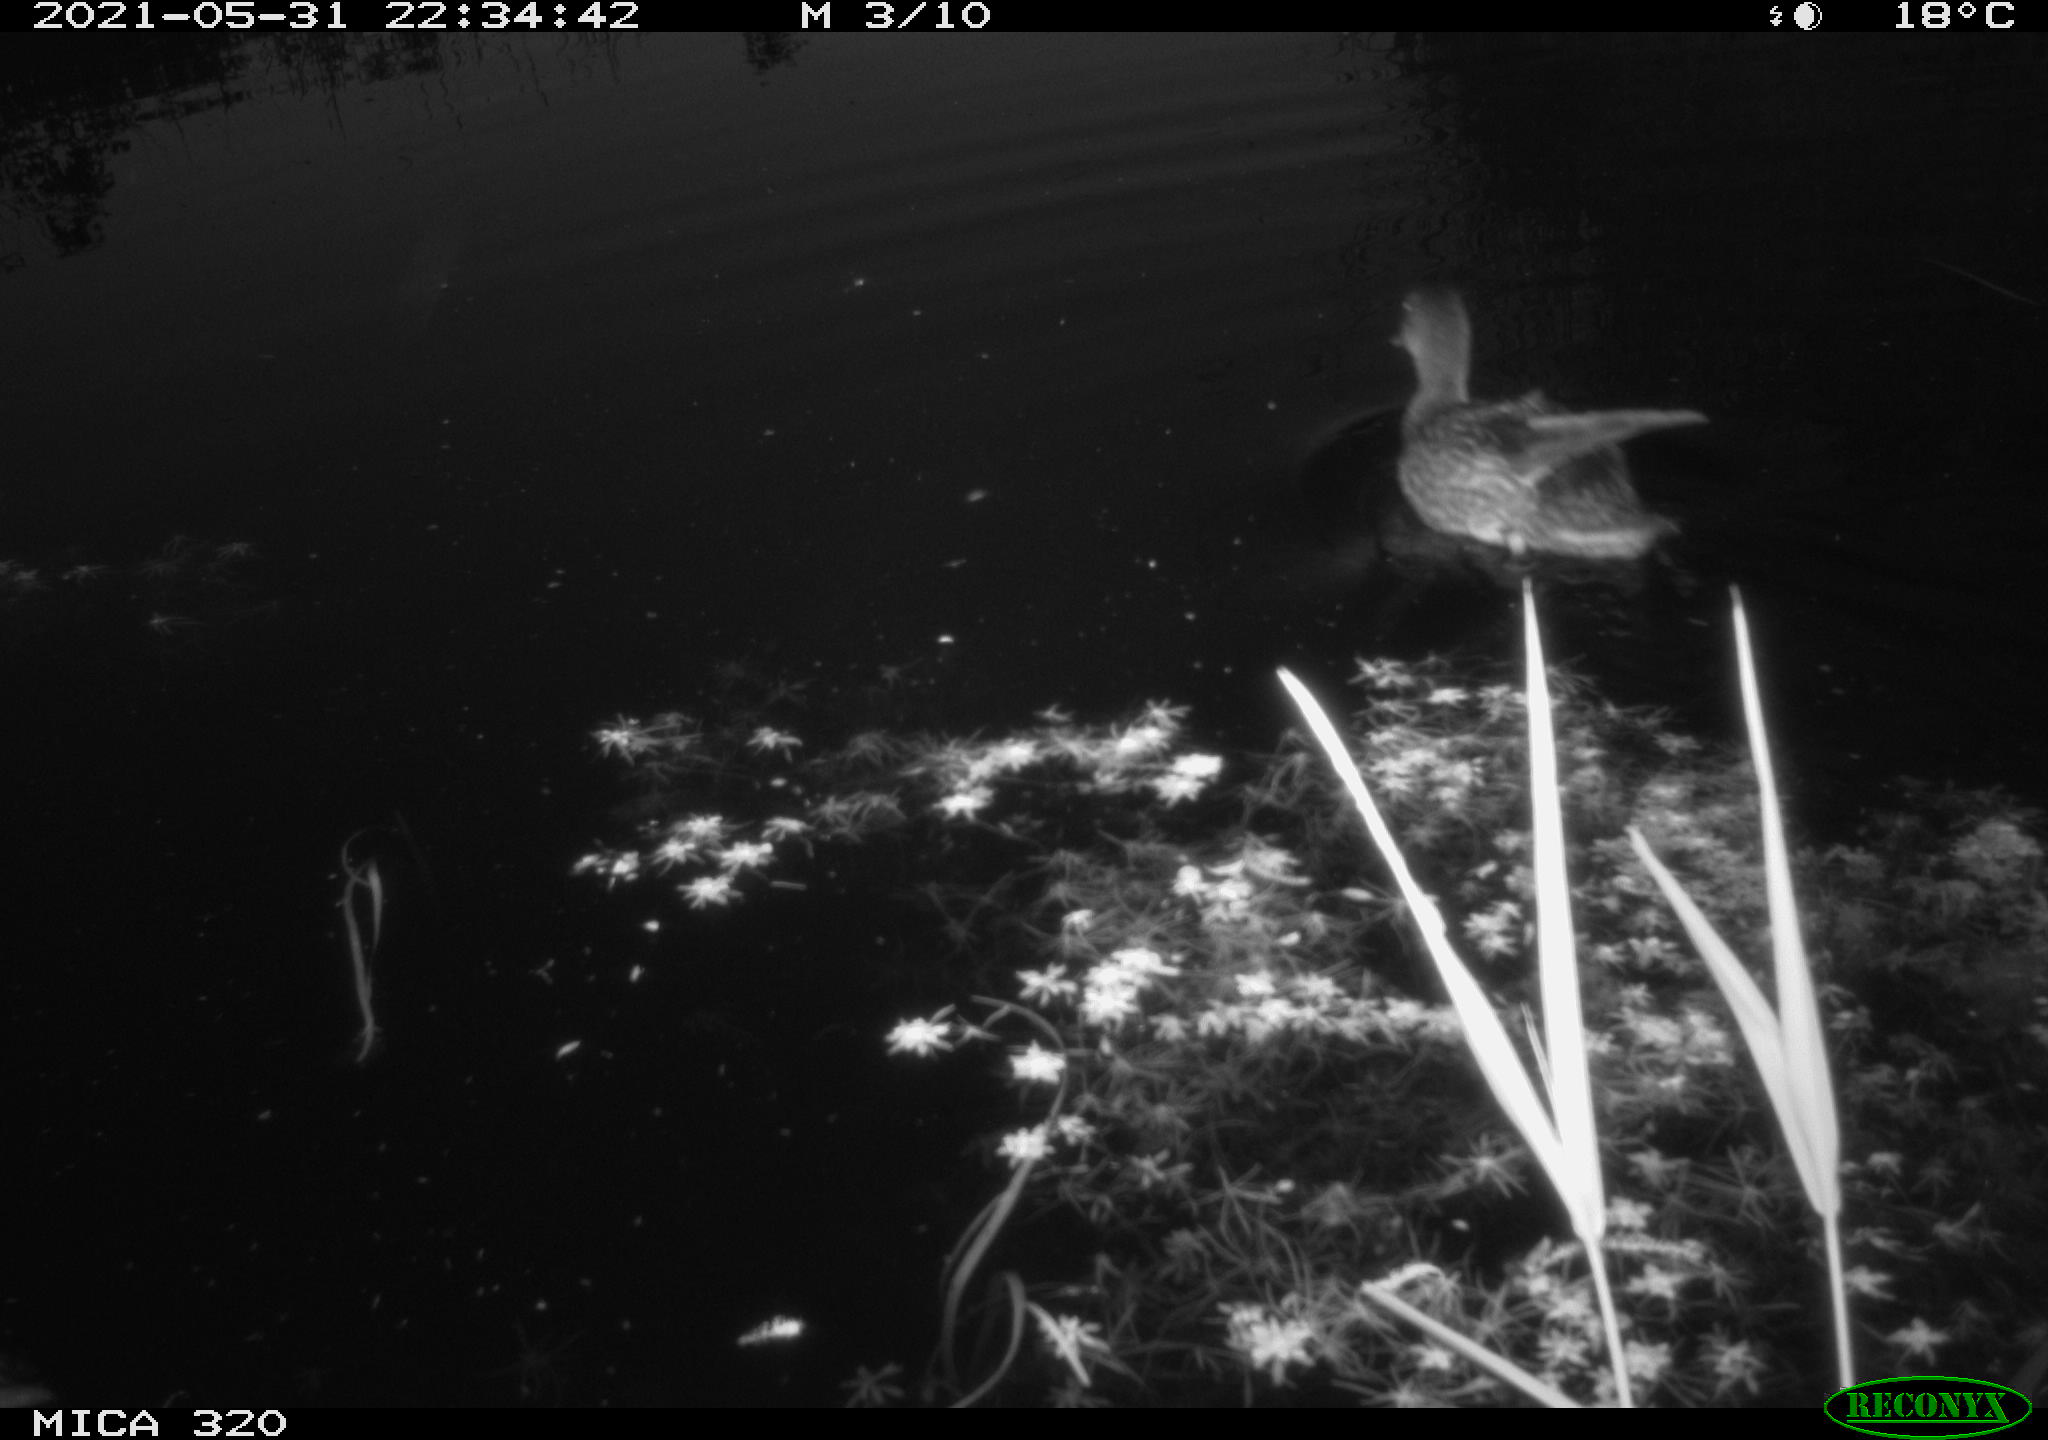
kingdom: Animalia
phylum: Chordata
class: Aves
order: Anseriformes
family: Anatidae
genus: Mareca
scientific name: Mareca strepera
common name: Gadwall
